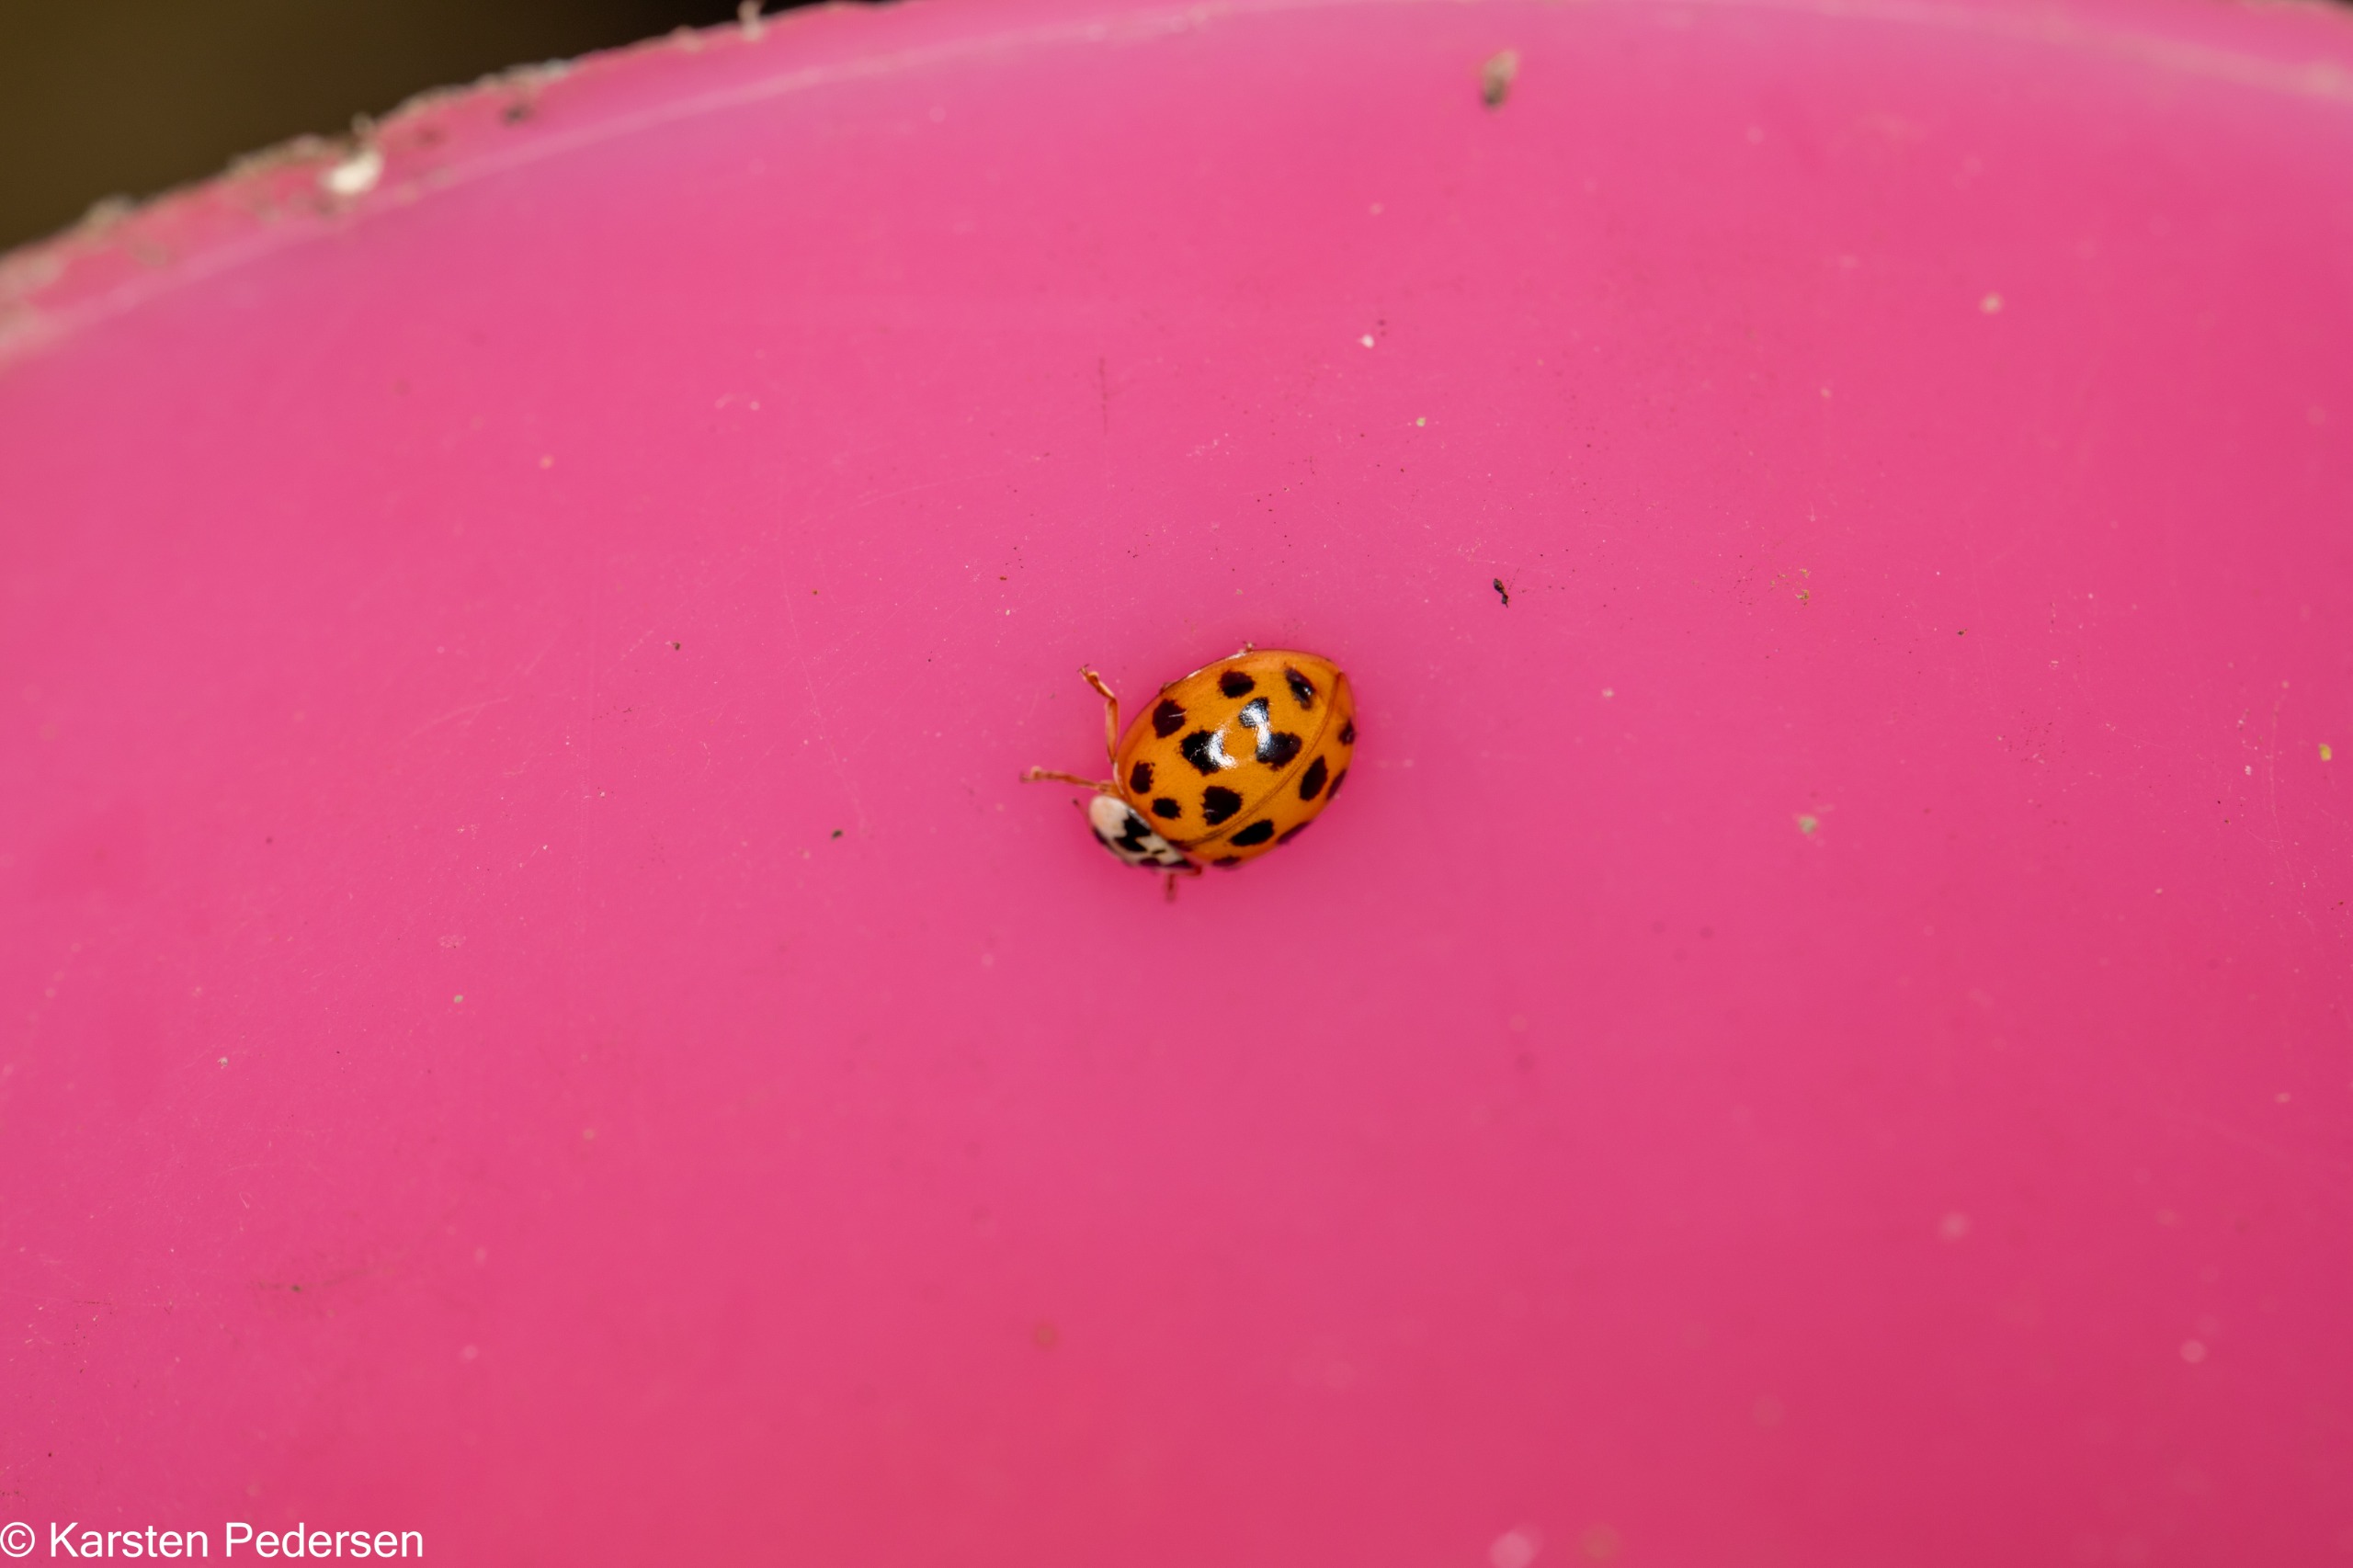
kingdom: Animalia
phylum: Arthropoda
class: Insecta
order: Coleoptera
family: Coccinellidae
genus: Harmonia
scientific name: Harmonia axyridis
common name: Harlekinmariehøne
